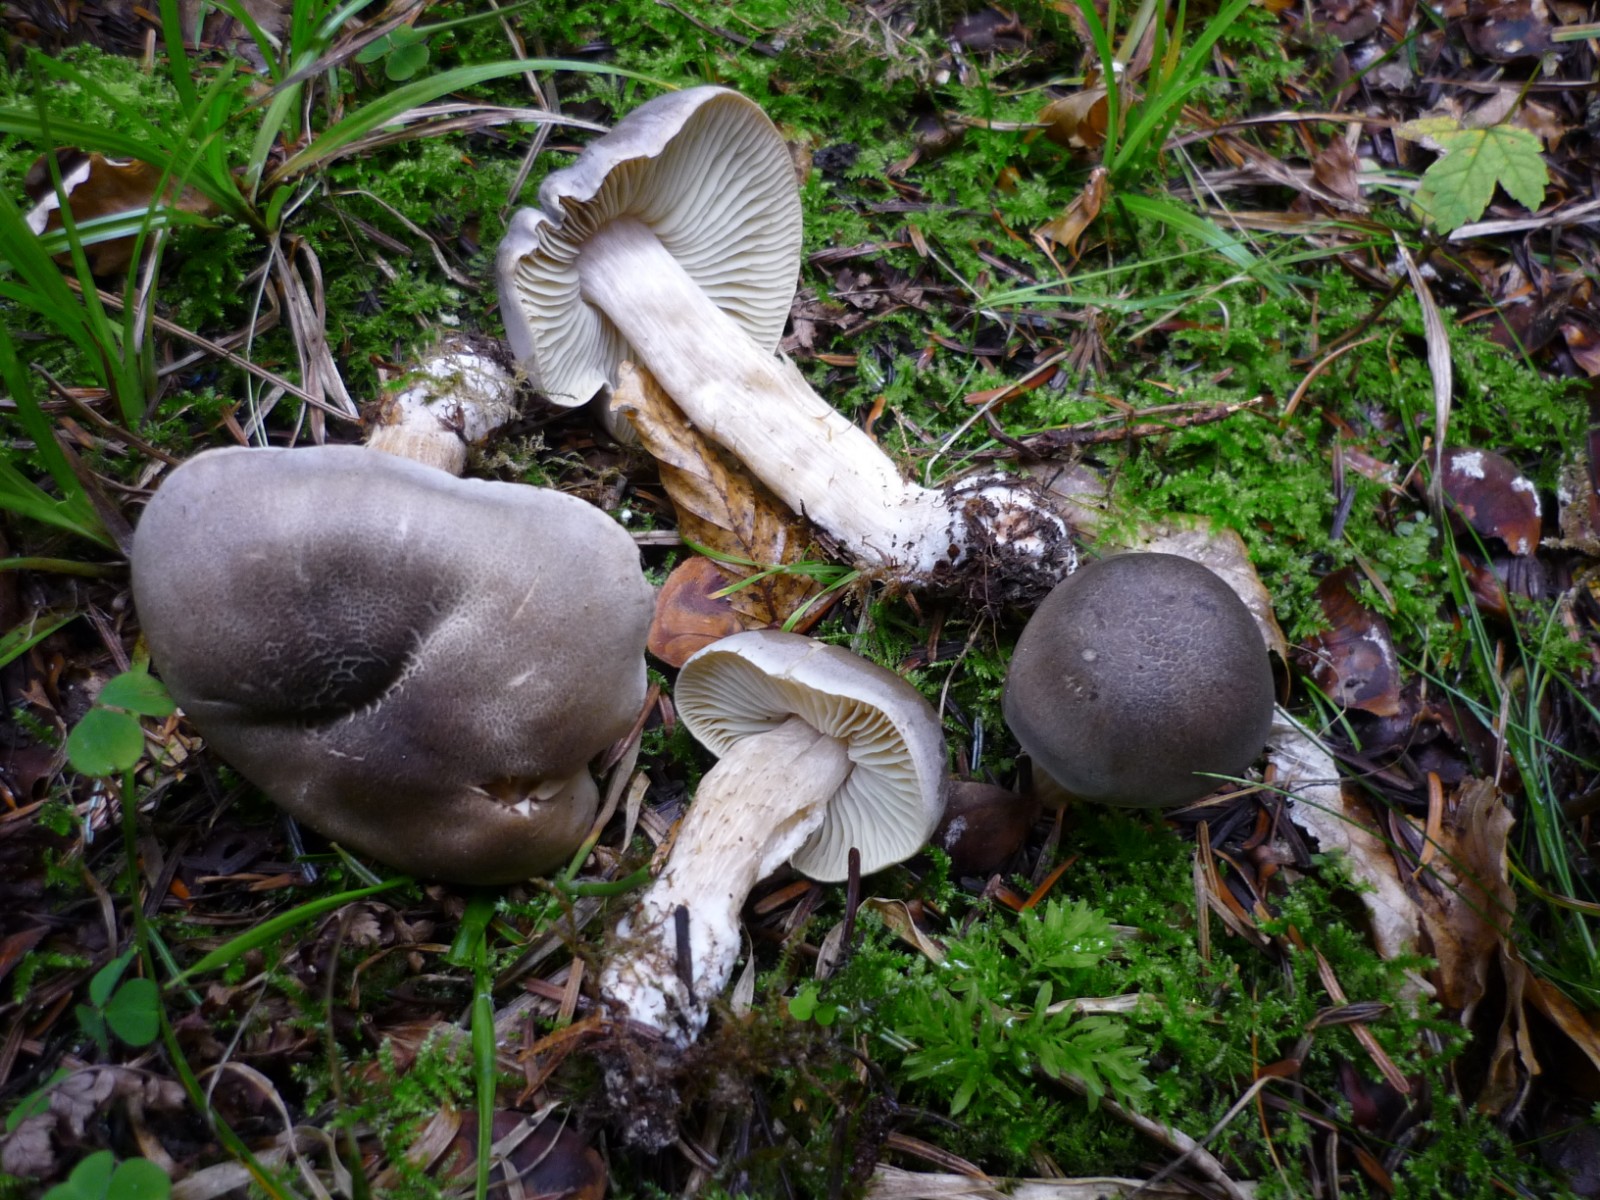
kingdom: Fungi
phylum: Basidiomycota
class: Agaricomycetes
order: Agaricales
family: Tricholomataceae
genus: Tricholoma
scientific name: Tricholoma saponaceum
